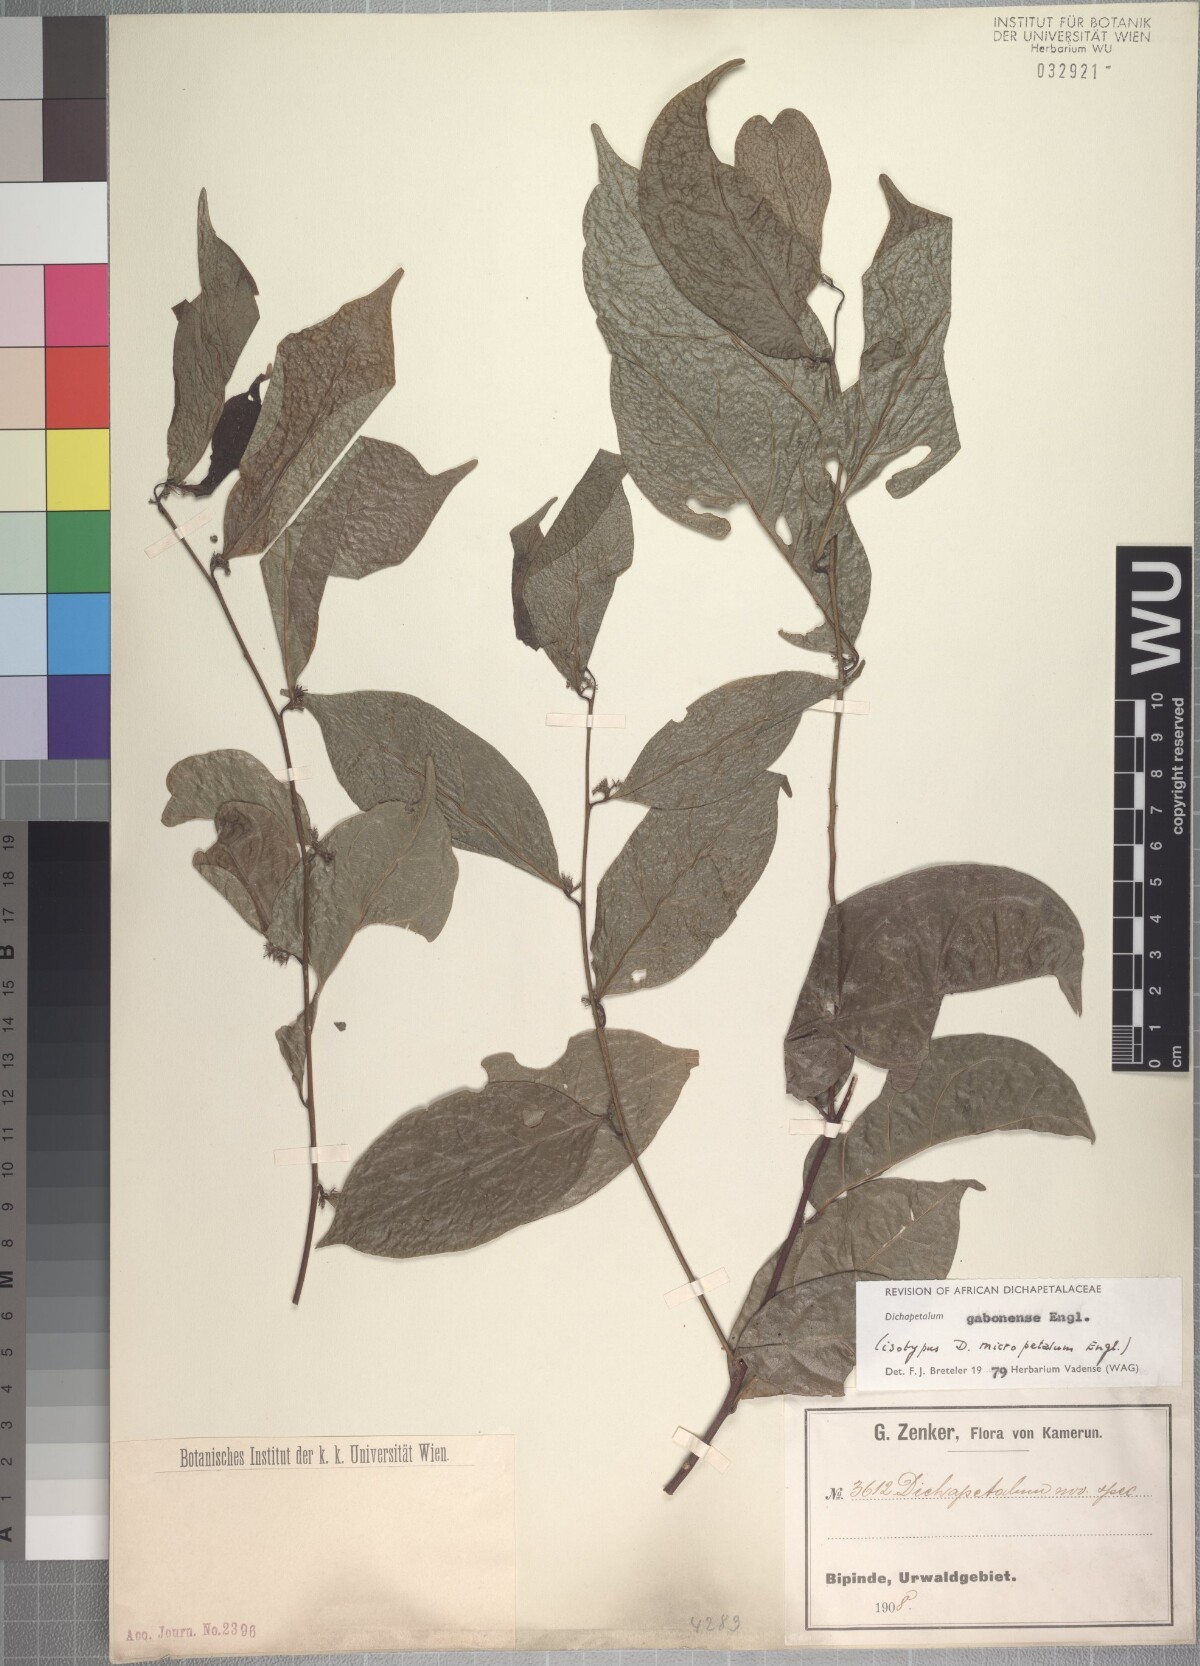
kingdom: Plantae
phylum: Tracheophyta
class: Magnoliopsida
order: Malpighiales
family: Dichapetalaceae
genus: Dichapetalum
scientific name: Dichapetalum gabonense
